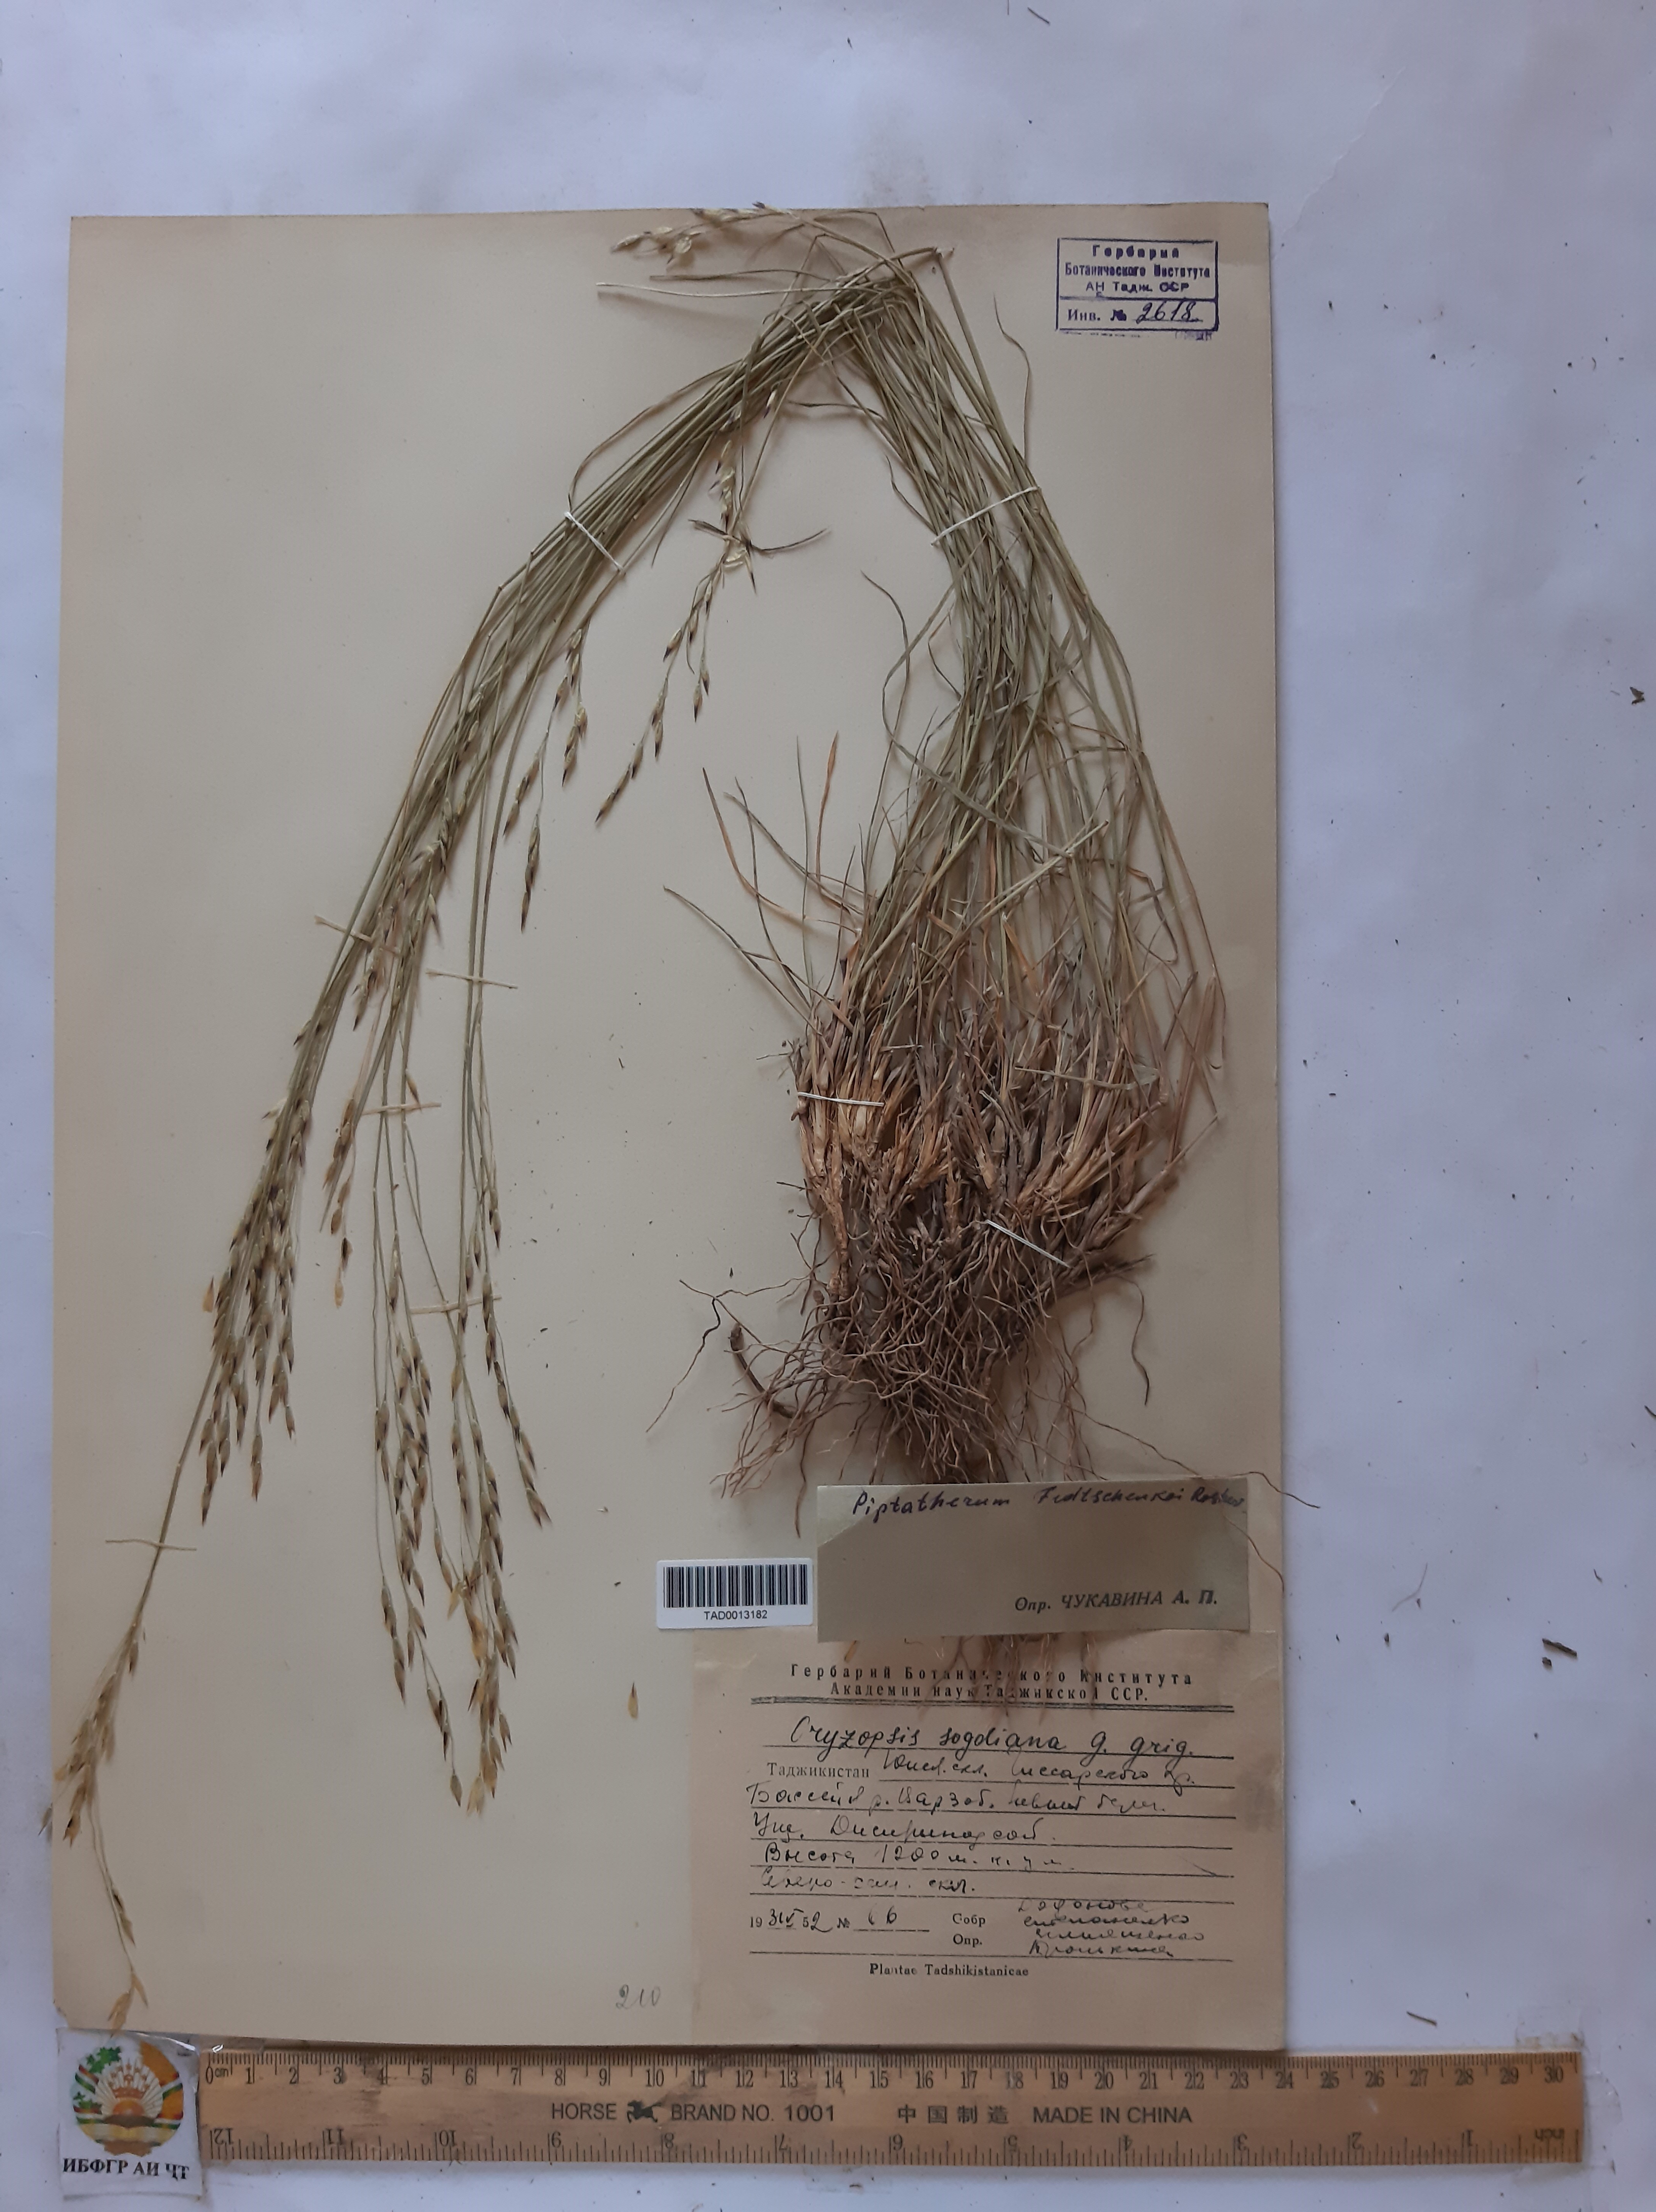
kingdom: Plantae
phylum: Tracheophyta
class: Liliopsida
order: Poales
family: Poaceae
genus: Piptatherum
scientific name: Piptatherum sogdianum
